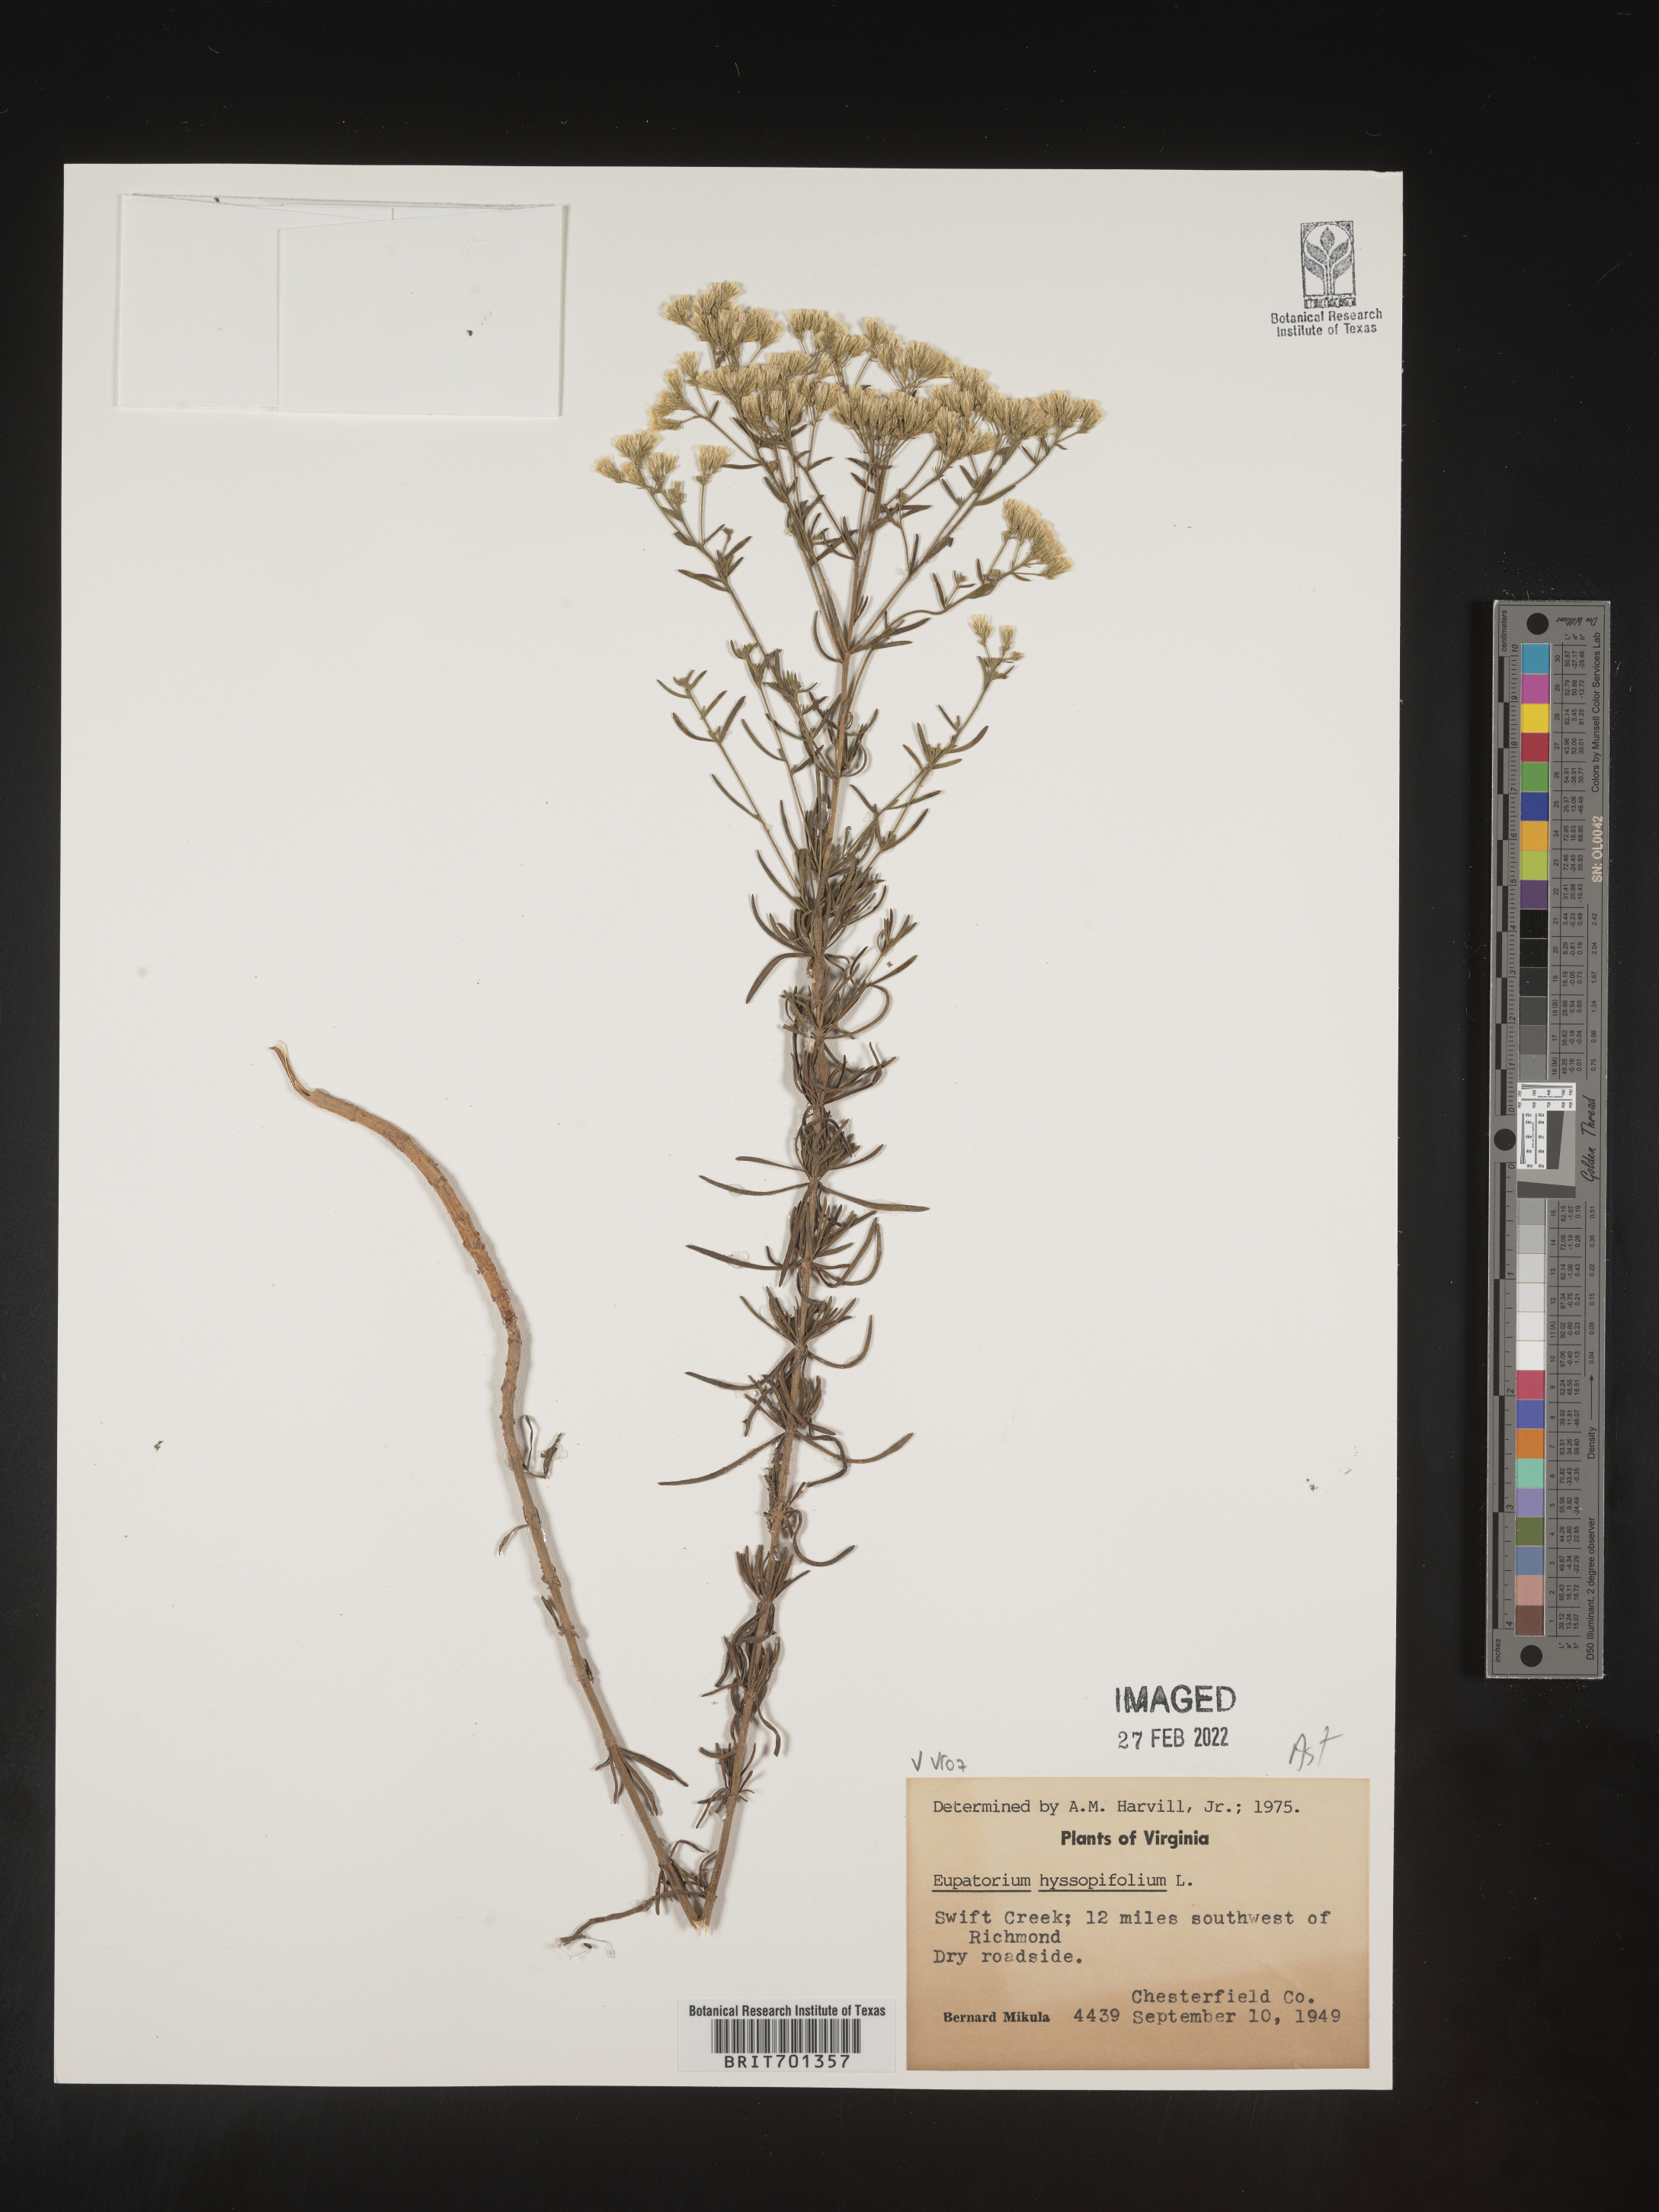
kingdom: Plantae
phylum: Tracheophyta
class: Magnoliopsida
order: Asterales
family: Asteraceae
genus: Eupatorium
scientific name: Eupatorium hyssopifolium
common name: Hyssop-leaf thoroughwort
